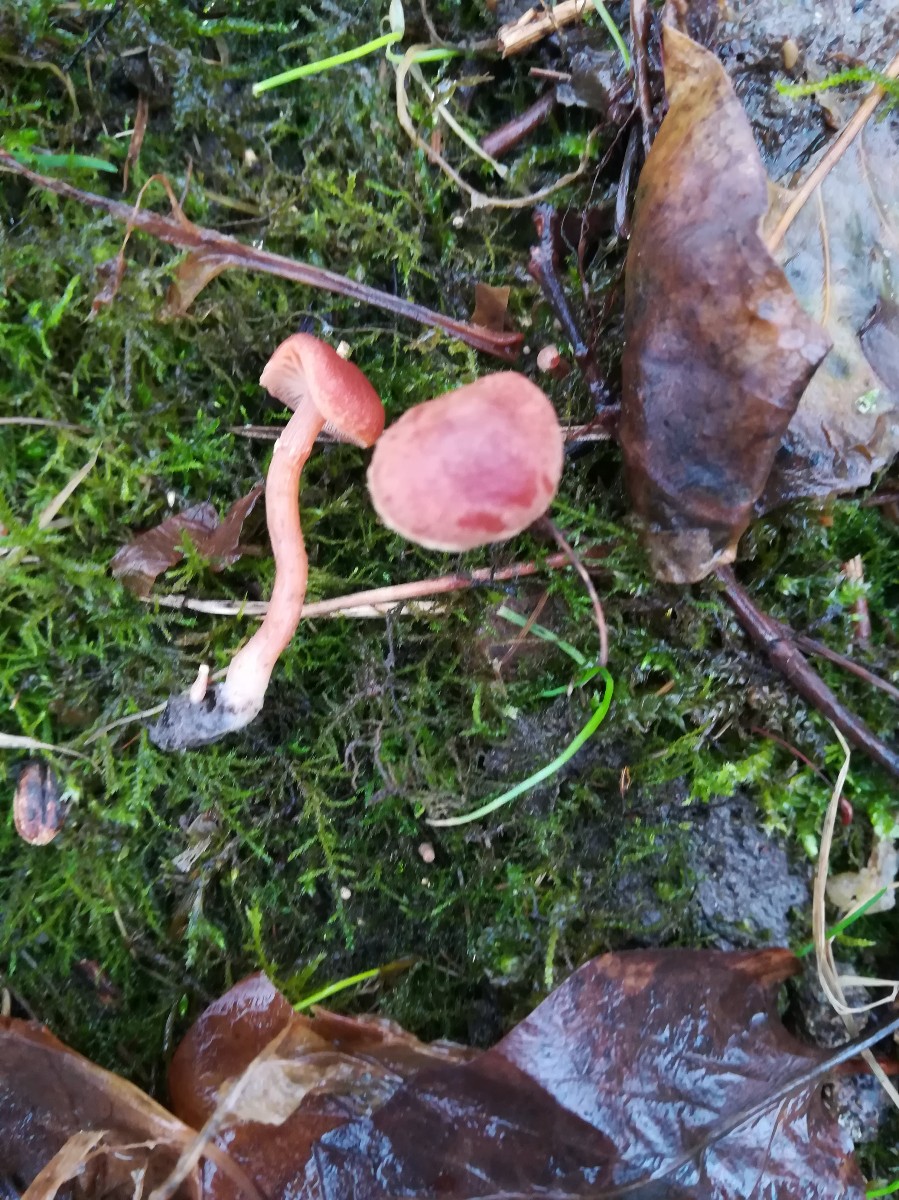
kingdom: Fungi
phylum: Basidiomycota
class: Agaricomycetes
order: Agaricales
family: Tubariaceae
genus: Tubaria
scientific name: Tubaria furfuracea
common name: kliddet fnughat
